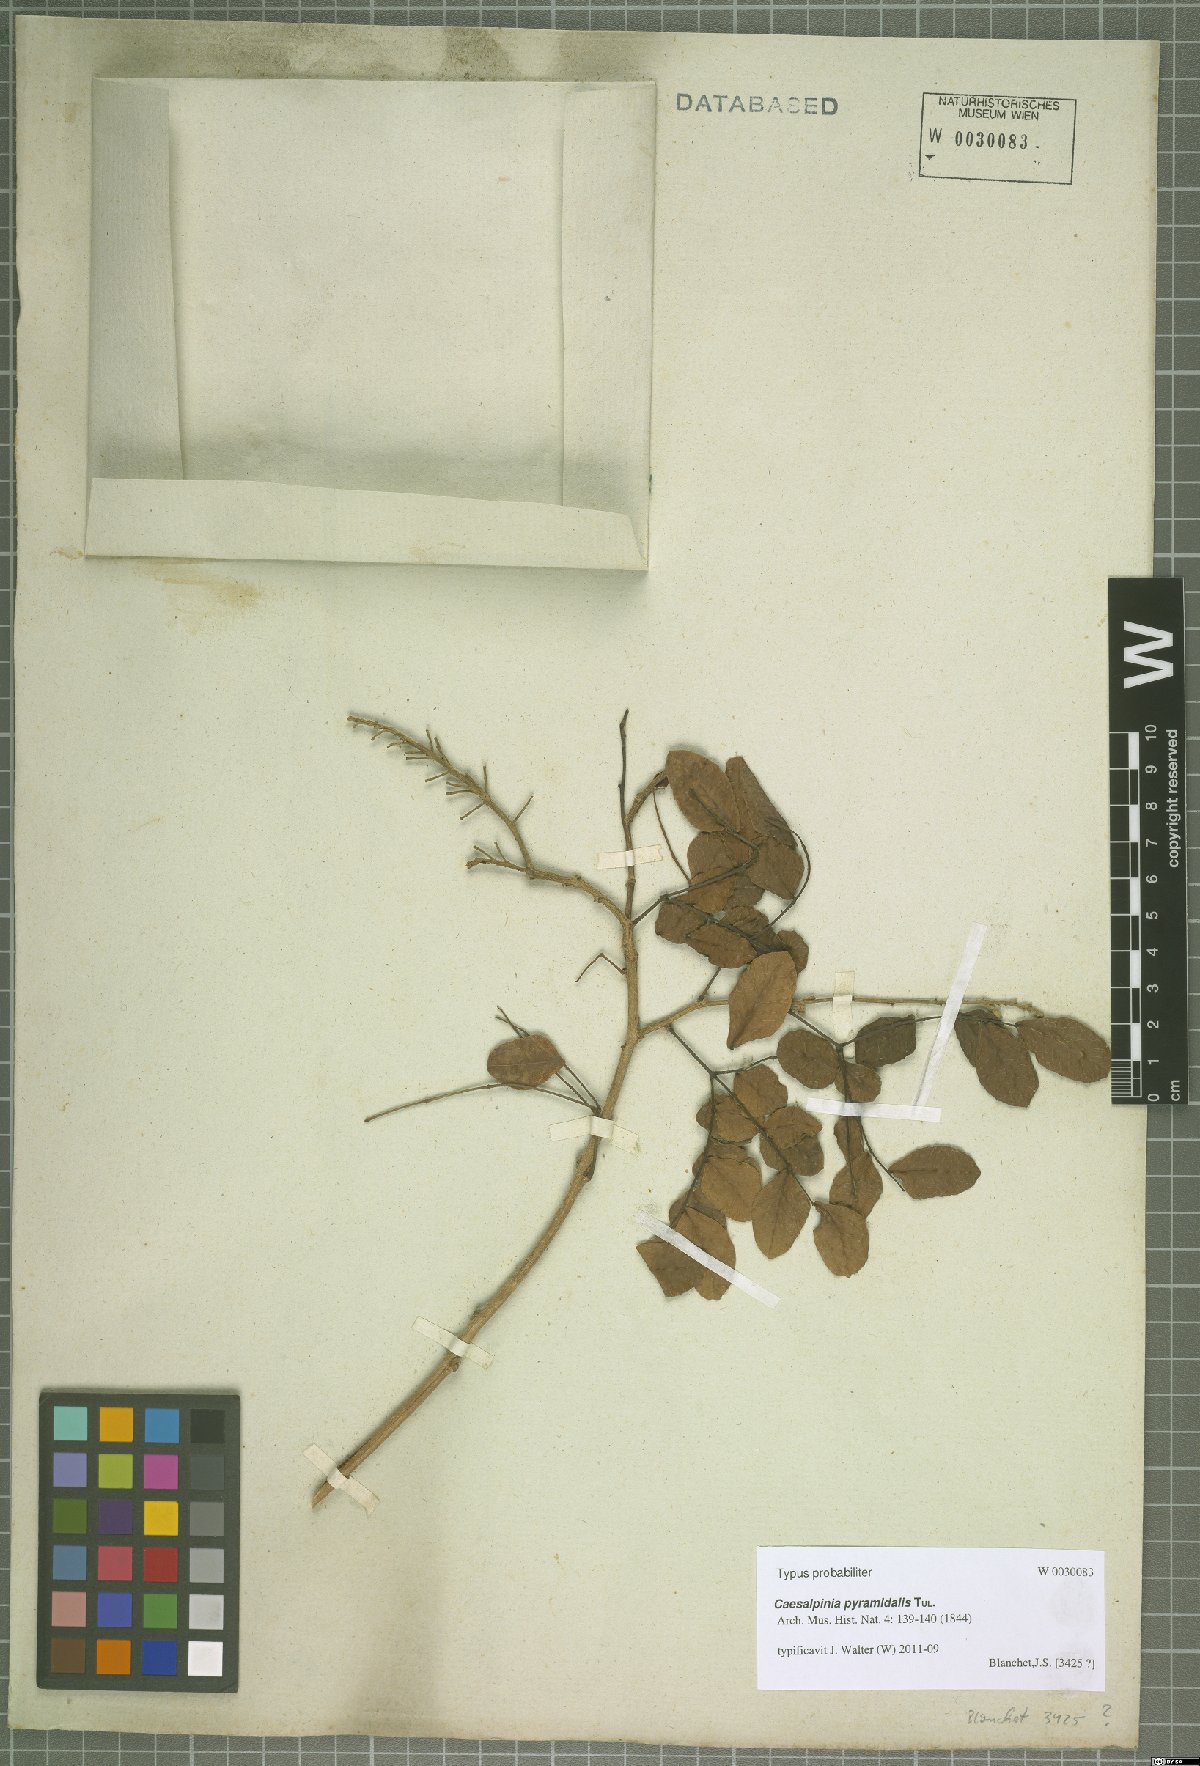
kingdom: Plantae
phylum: Tracheophyta
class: Magnoliopsida
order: Fabales
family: Fabaceae
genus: Cenostigma
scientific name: Cenostigma pyramidale
